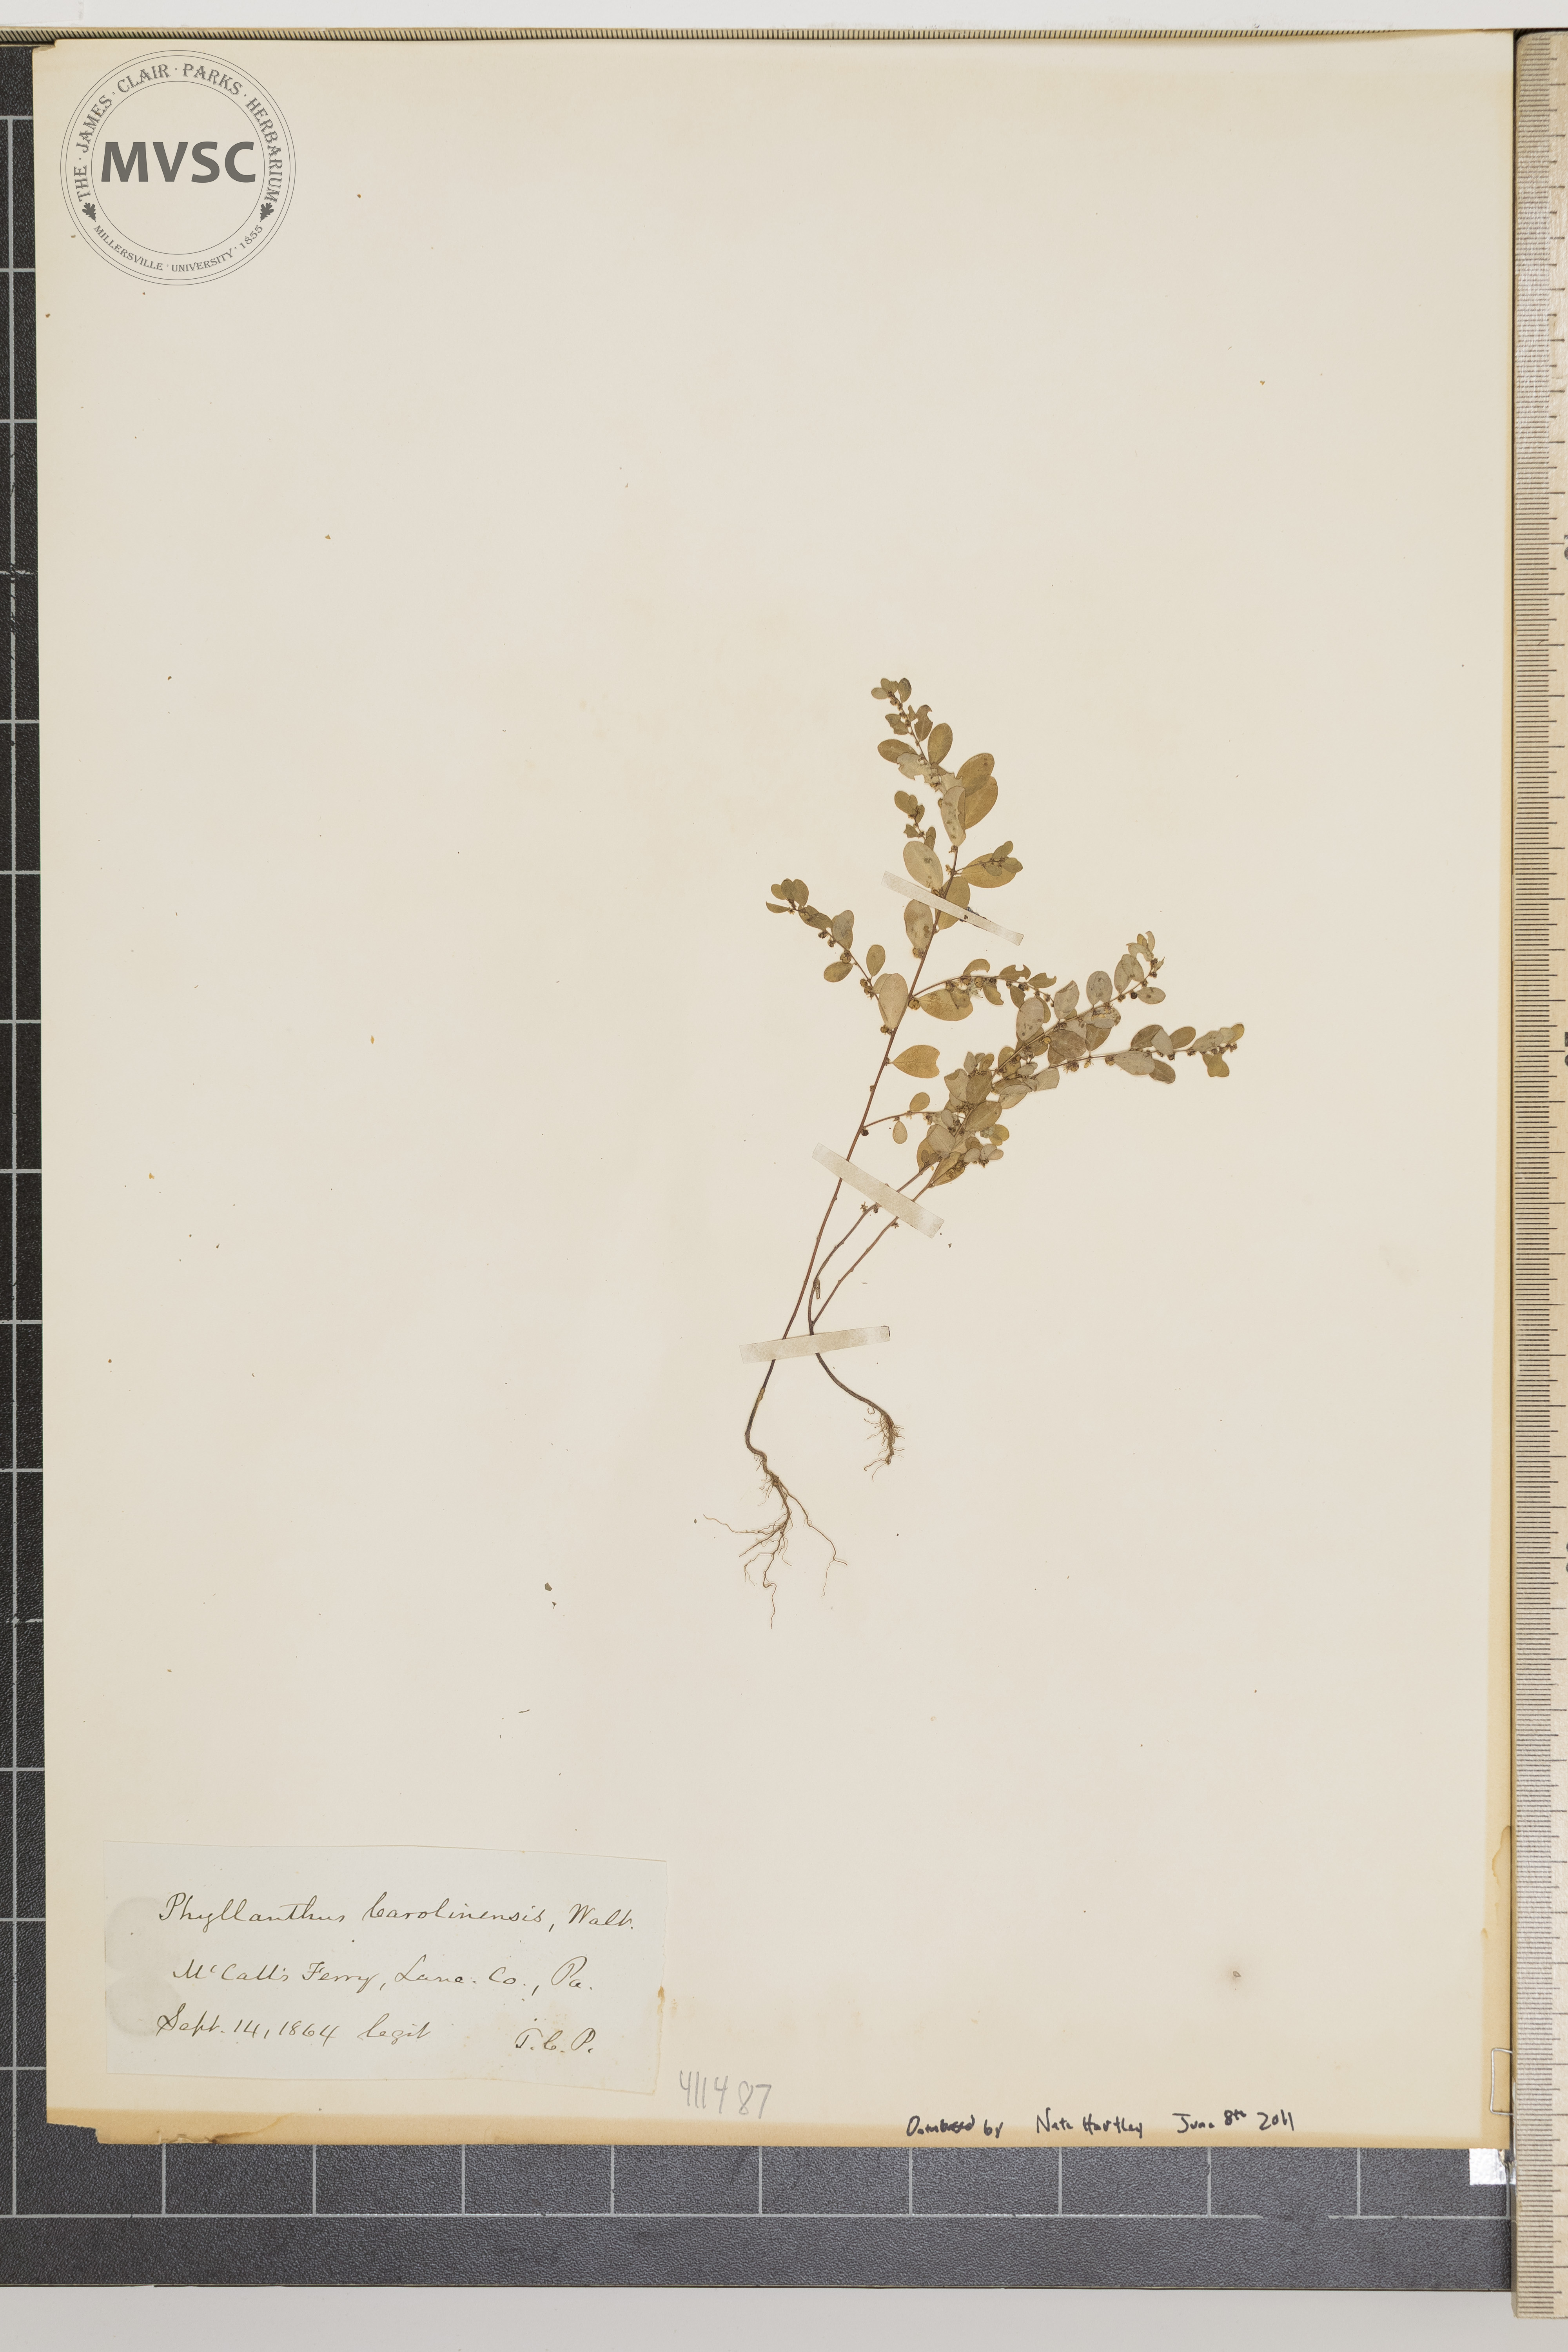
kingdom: Plantae
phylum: Tracheophyta
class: Magnoliopsida
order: Malpighiales
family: Phyllanthaceae
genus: Phyllanthus
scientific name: Phyllanthus caroliniensis
